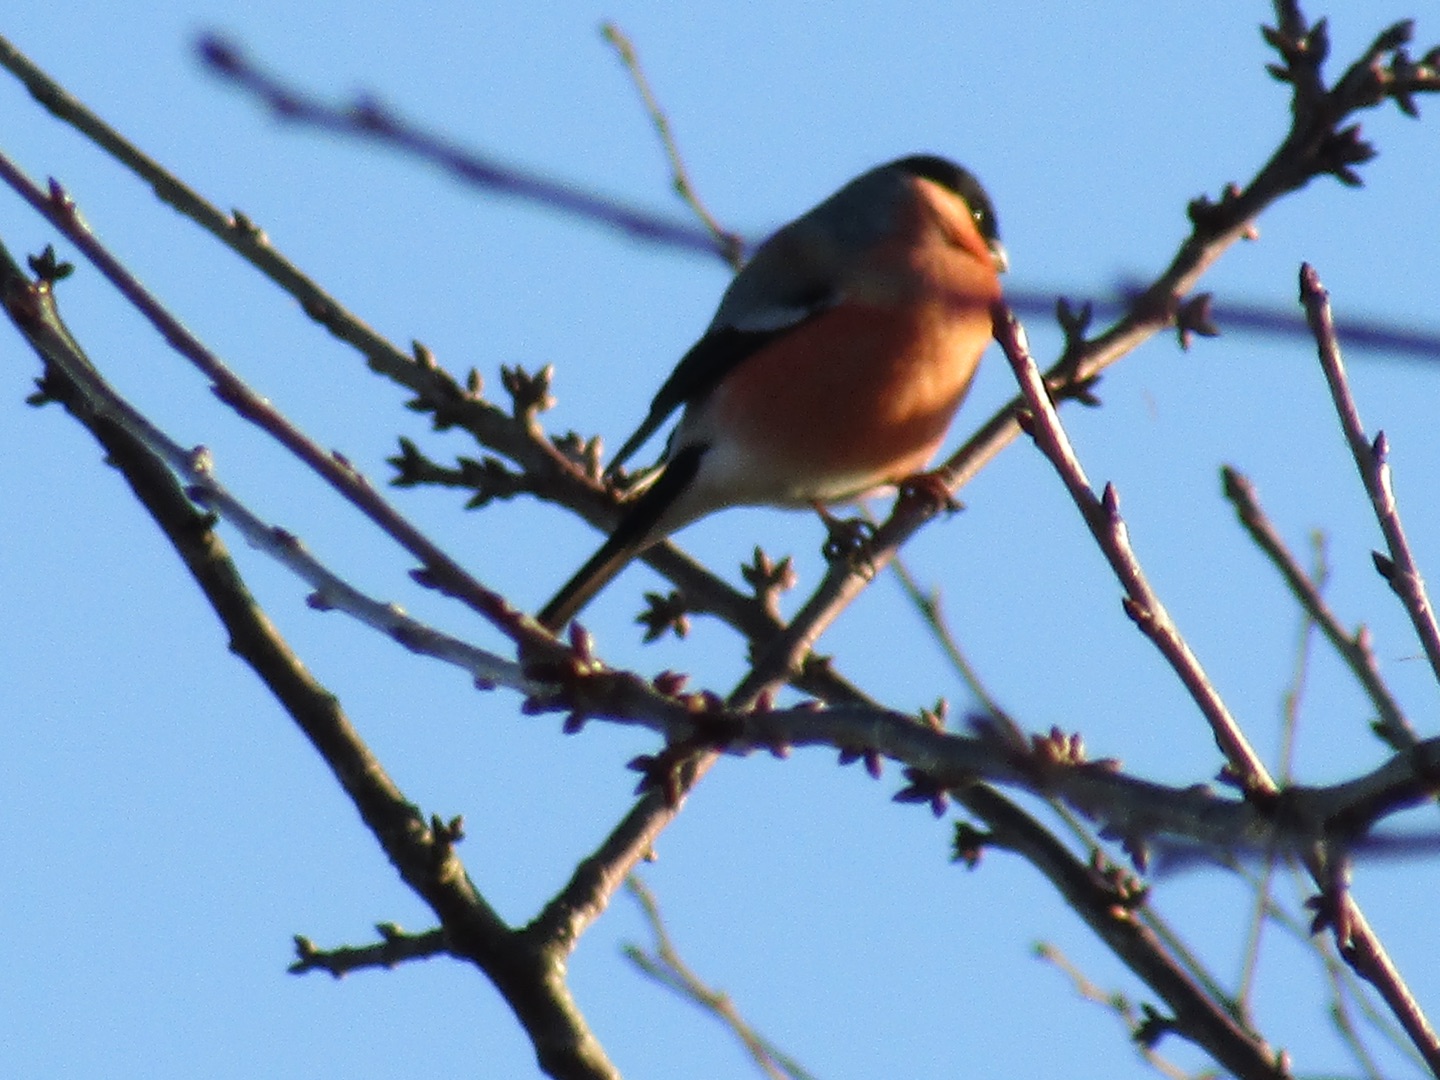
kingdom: Animalia
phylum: Chordata
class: Aves
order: Passeriformes
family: Fringillidae
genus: Pyrrhula
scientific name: Pyrrhula pyrrhula
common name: Dompap
